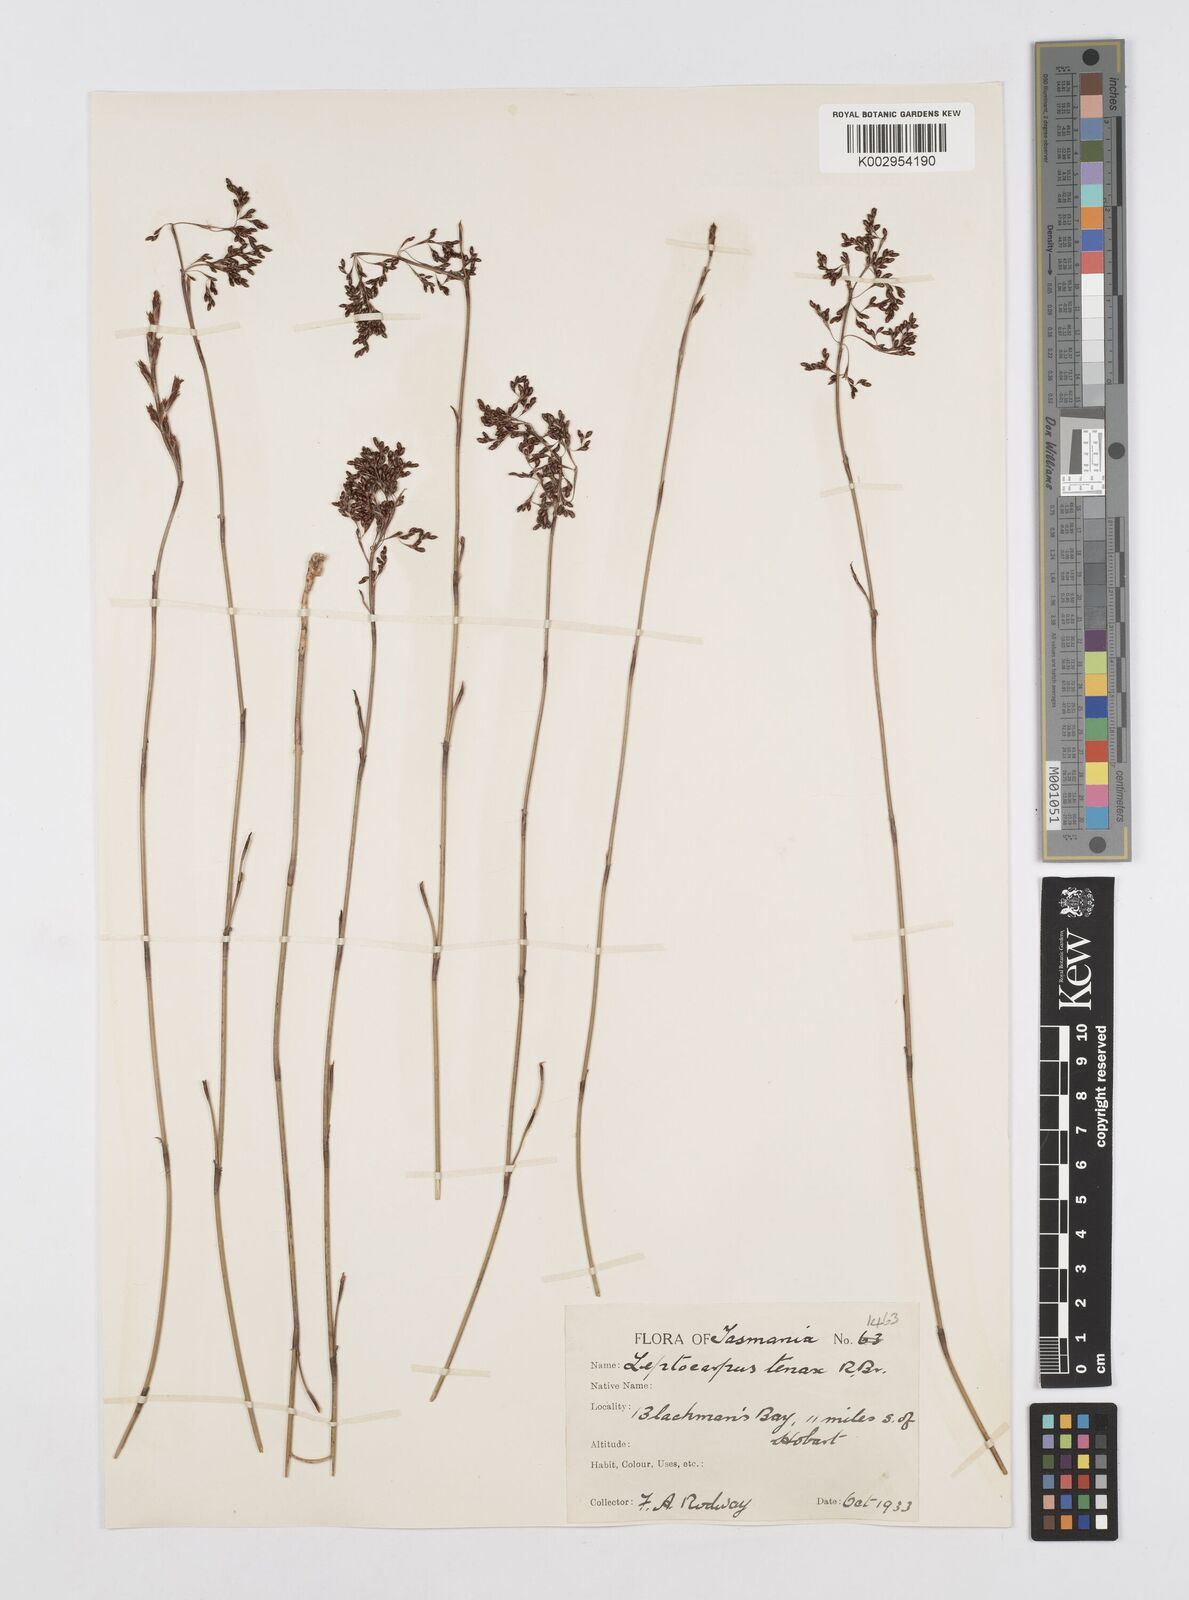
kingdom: Plantae
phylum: Tracheophyta
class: Liliopsida
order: Poales
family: Restionaceae
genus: Leptocarpus
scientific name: Leptocarpus tenax
